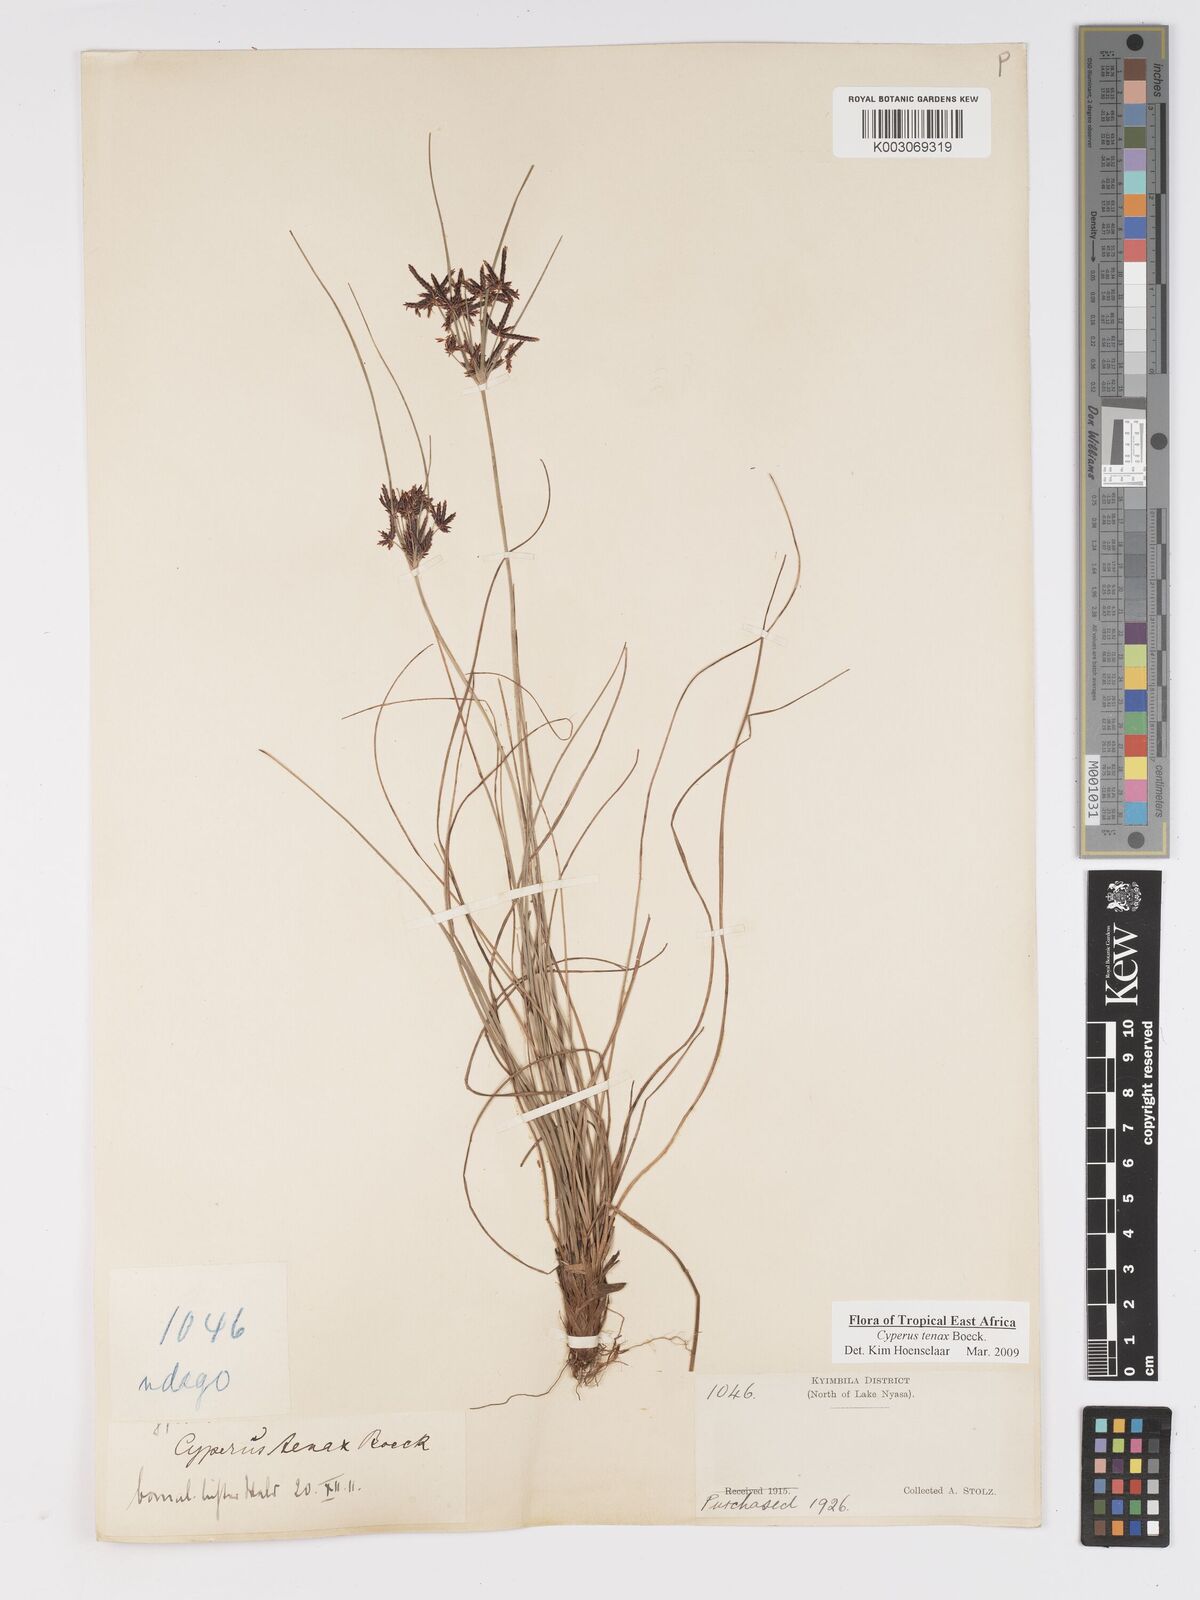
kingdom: Plantae
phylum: Tracheophyta
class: Liliopsida
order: Poales
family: Cyperaceae
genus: Cyperus
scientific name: Cyperus tenax
